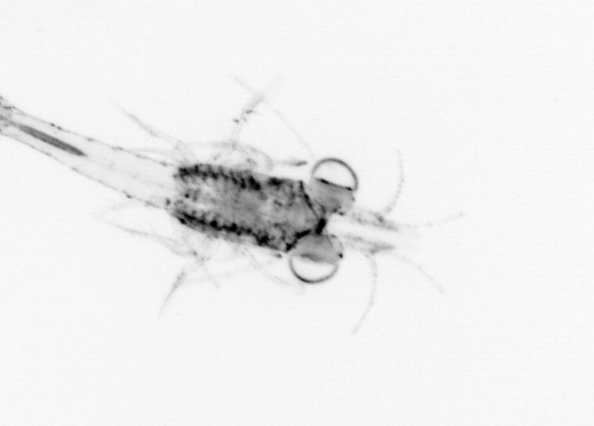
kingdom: Animalia
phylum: Arthropoda
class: Malacostraca
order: Decapoda
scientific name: Decapoda
